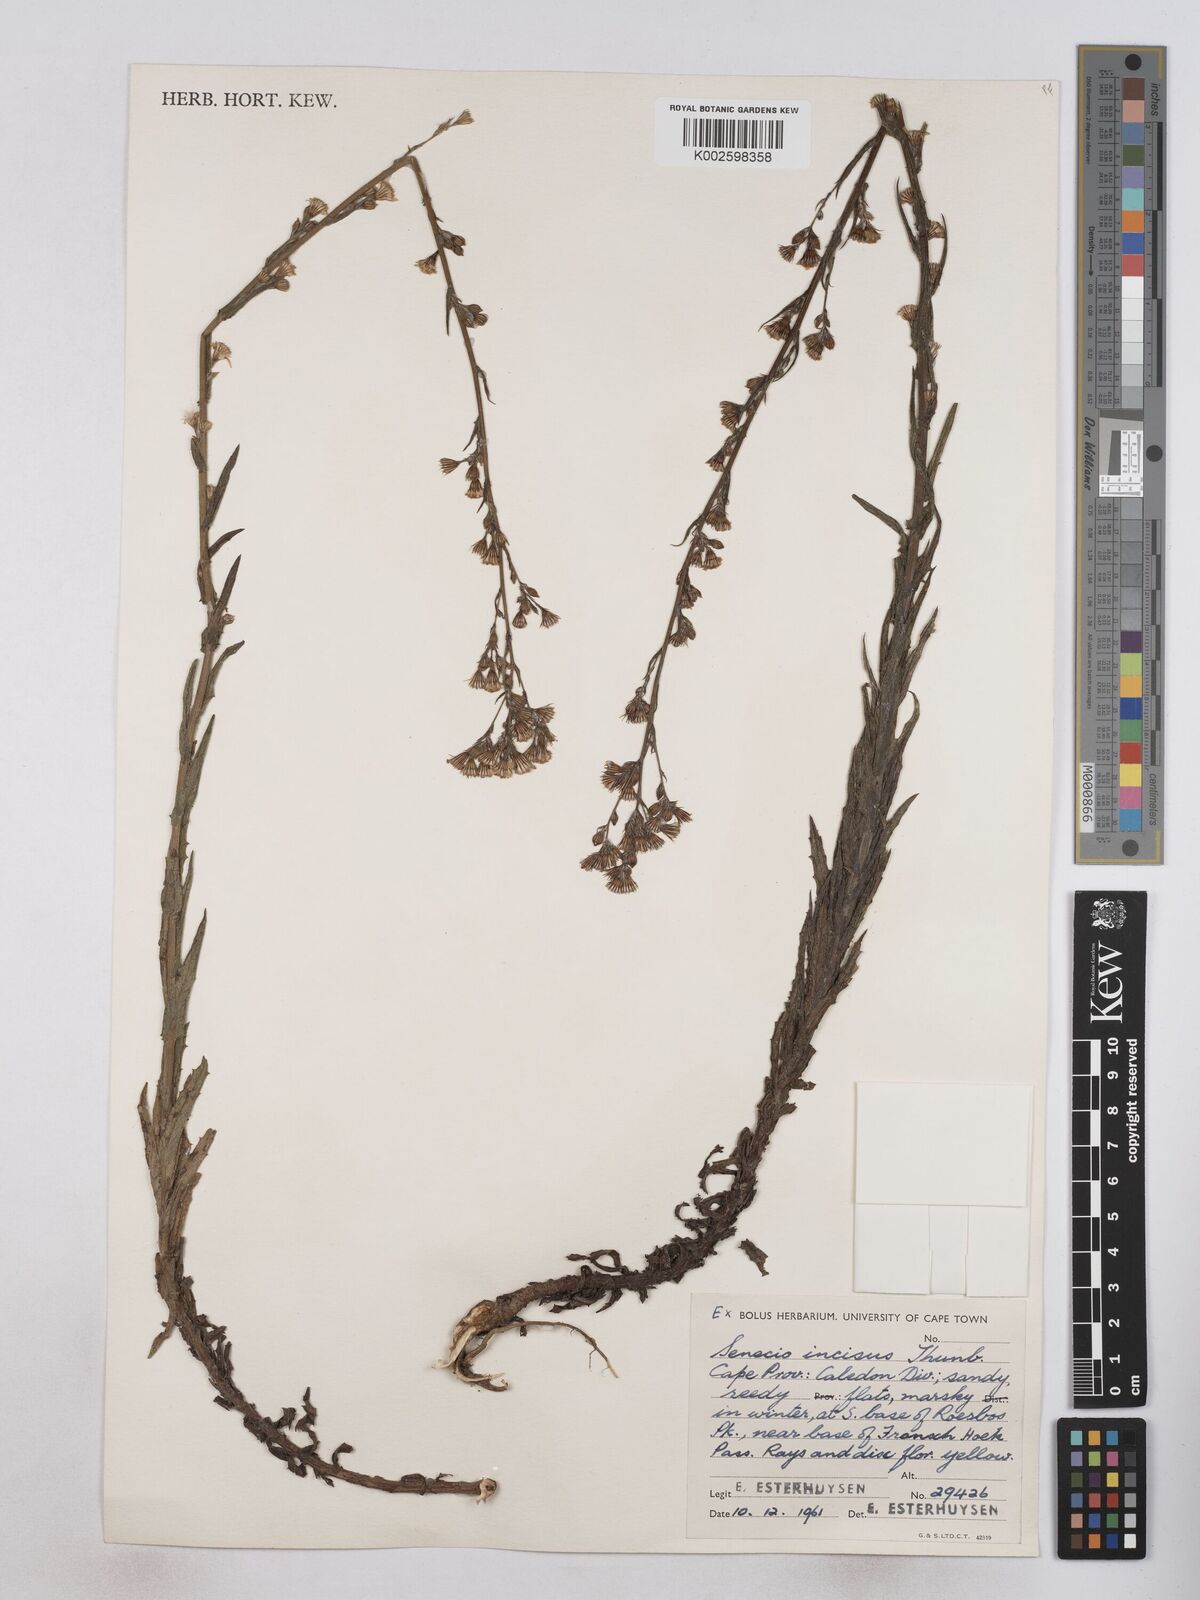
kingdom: Plantae
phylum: Tracheophyta
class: Magnoliopsida
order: Asterales
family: Asteraceae
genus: Senecio
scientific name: Senecio phalachrolaenus
